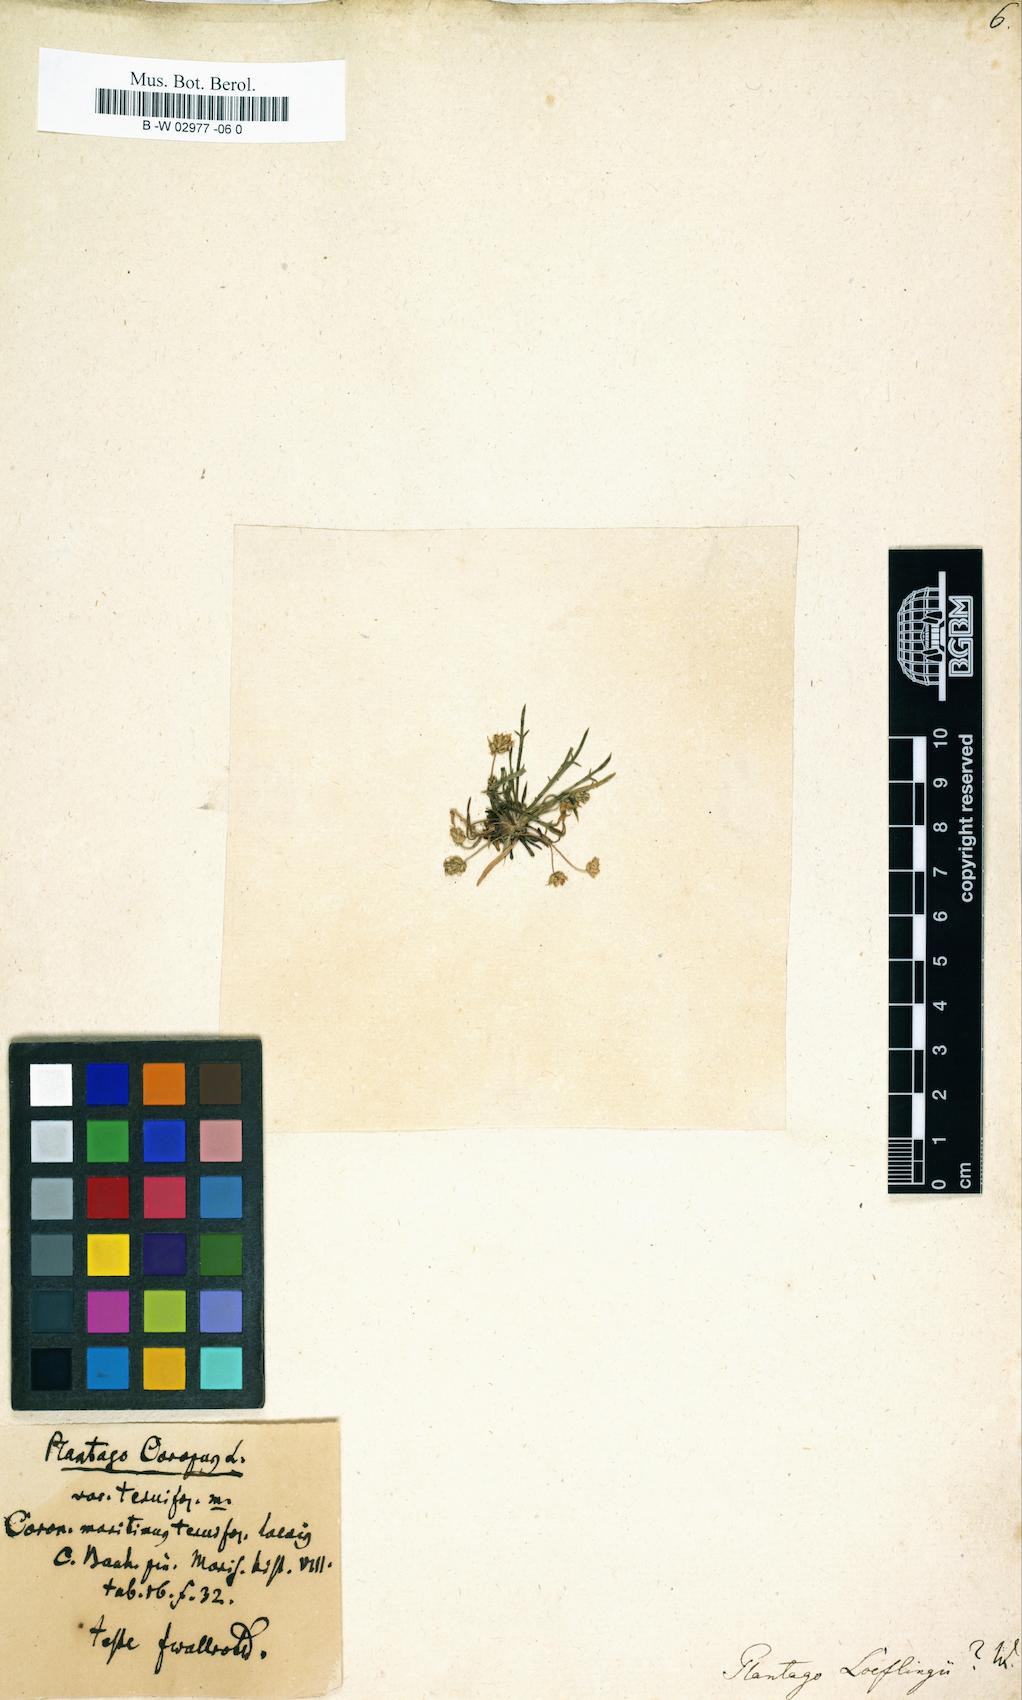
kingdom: Plantae
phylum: Tracheophyta
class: Magnoliopsida
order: Lamiales
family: Plantaginaceae
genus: Plantago
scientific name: Plantago loeflingii
